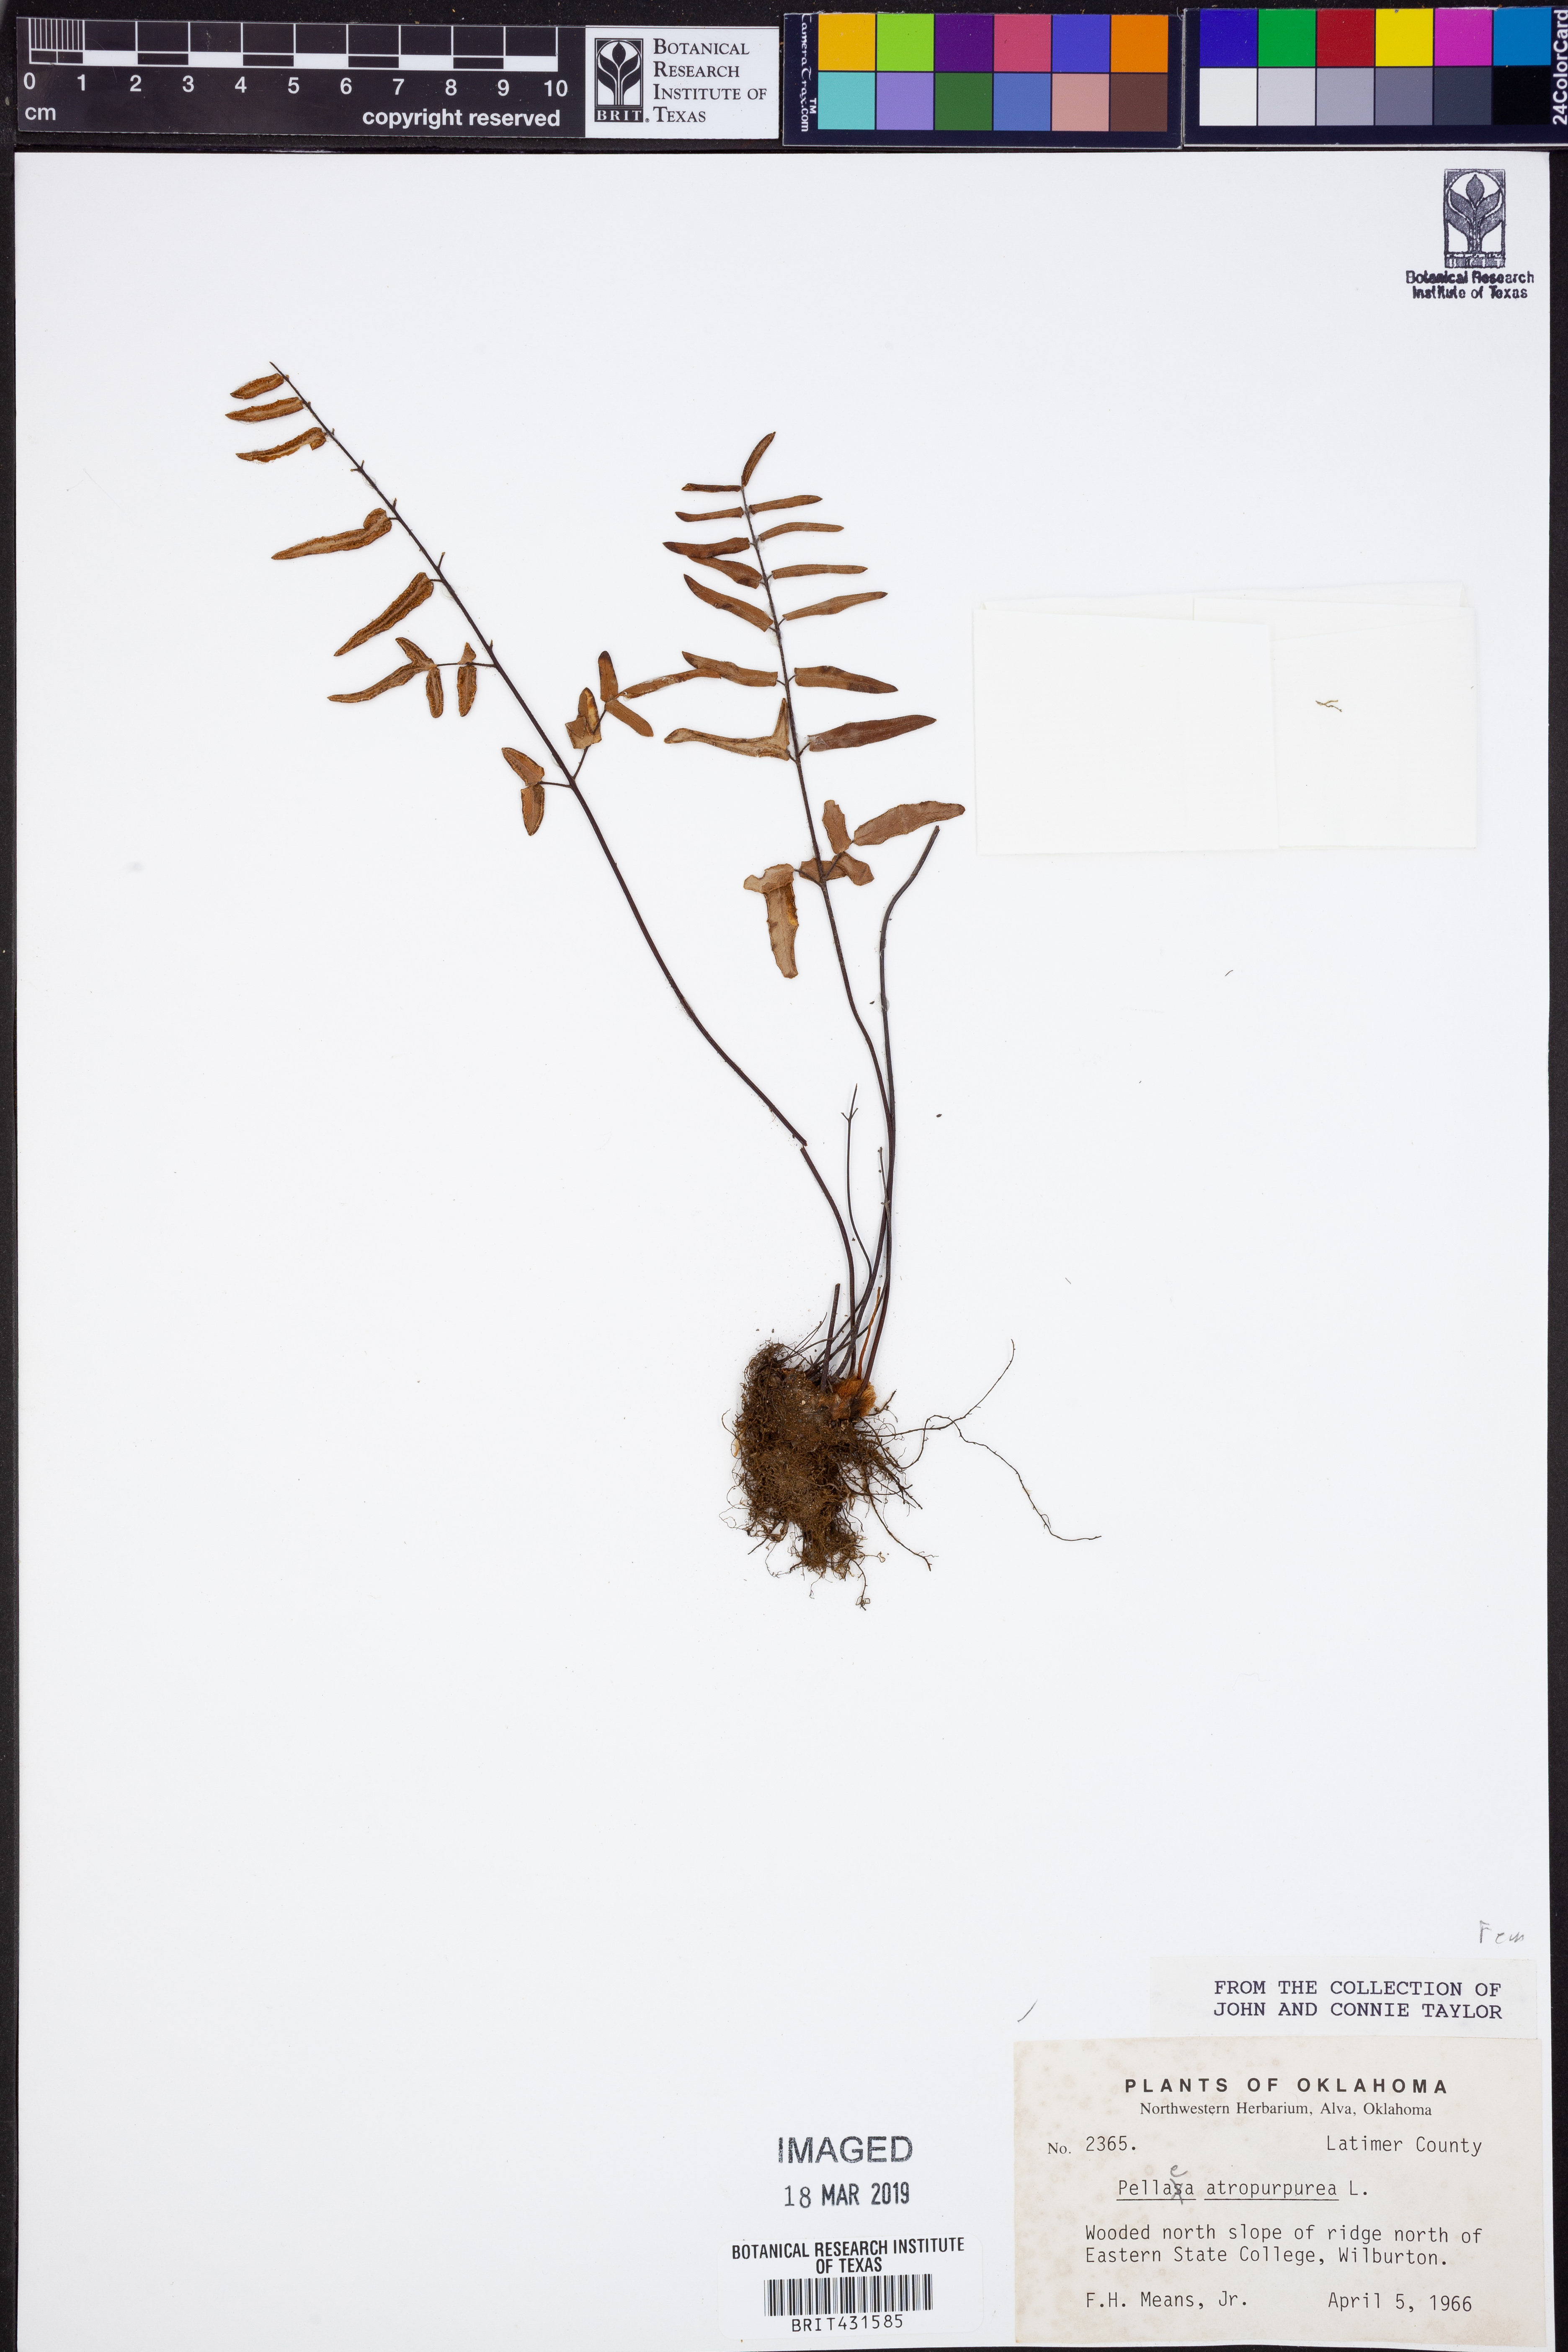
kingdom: Plantae
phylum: Tracheophyta
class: Polypodiopsida
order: Polypodiales
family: Pteridaceae
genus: Pellaea
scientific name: Pellaea atropurpurea
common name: Hairy cliffbrake
